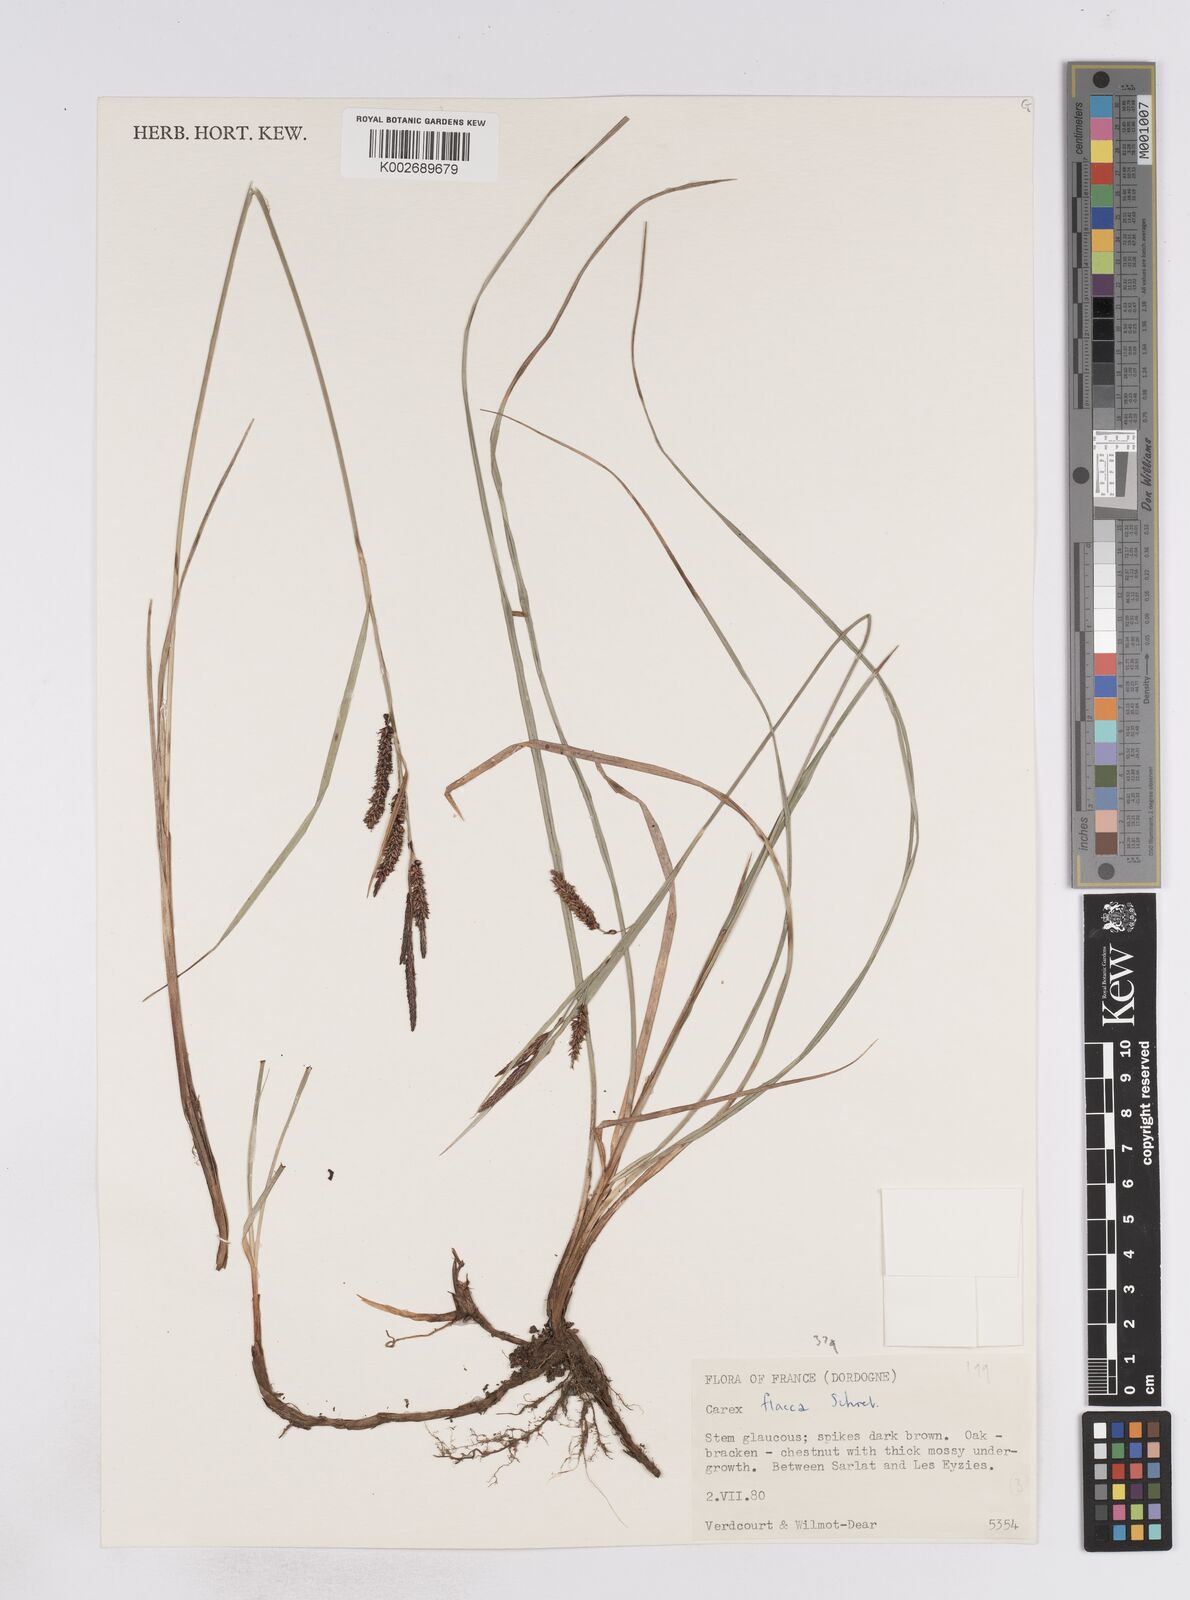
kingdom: Plantae
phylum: Tracheophyta
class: Liliopsida
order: Poales
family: Cyperaceae
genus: Carex
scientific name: Carex flacca
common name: Glaucous sedge
